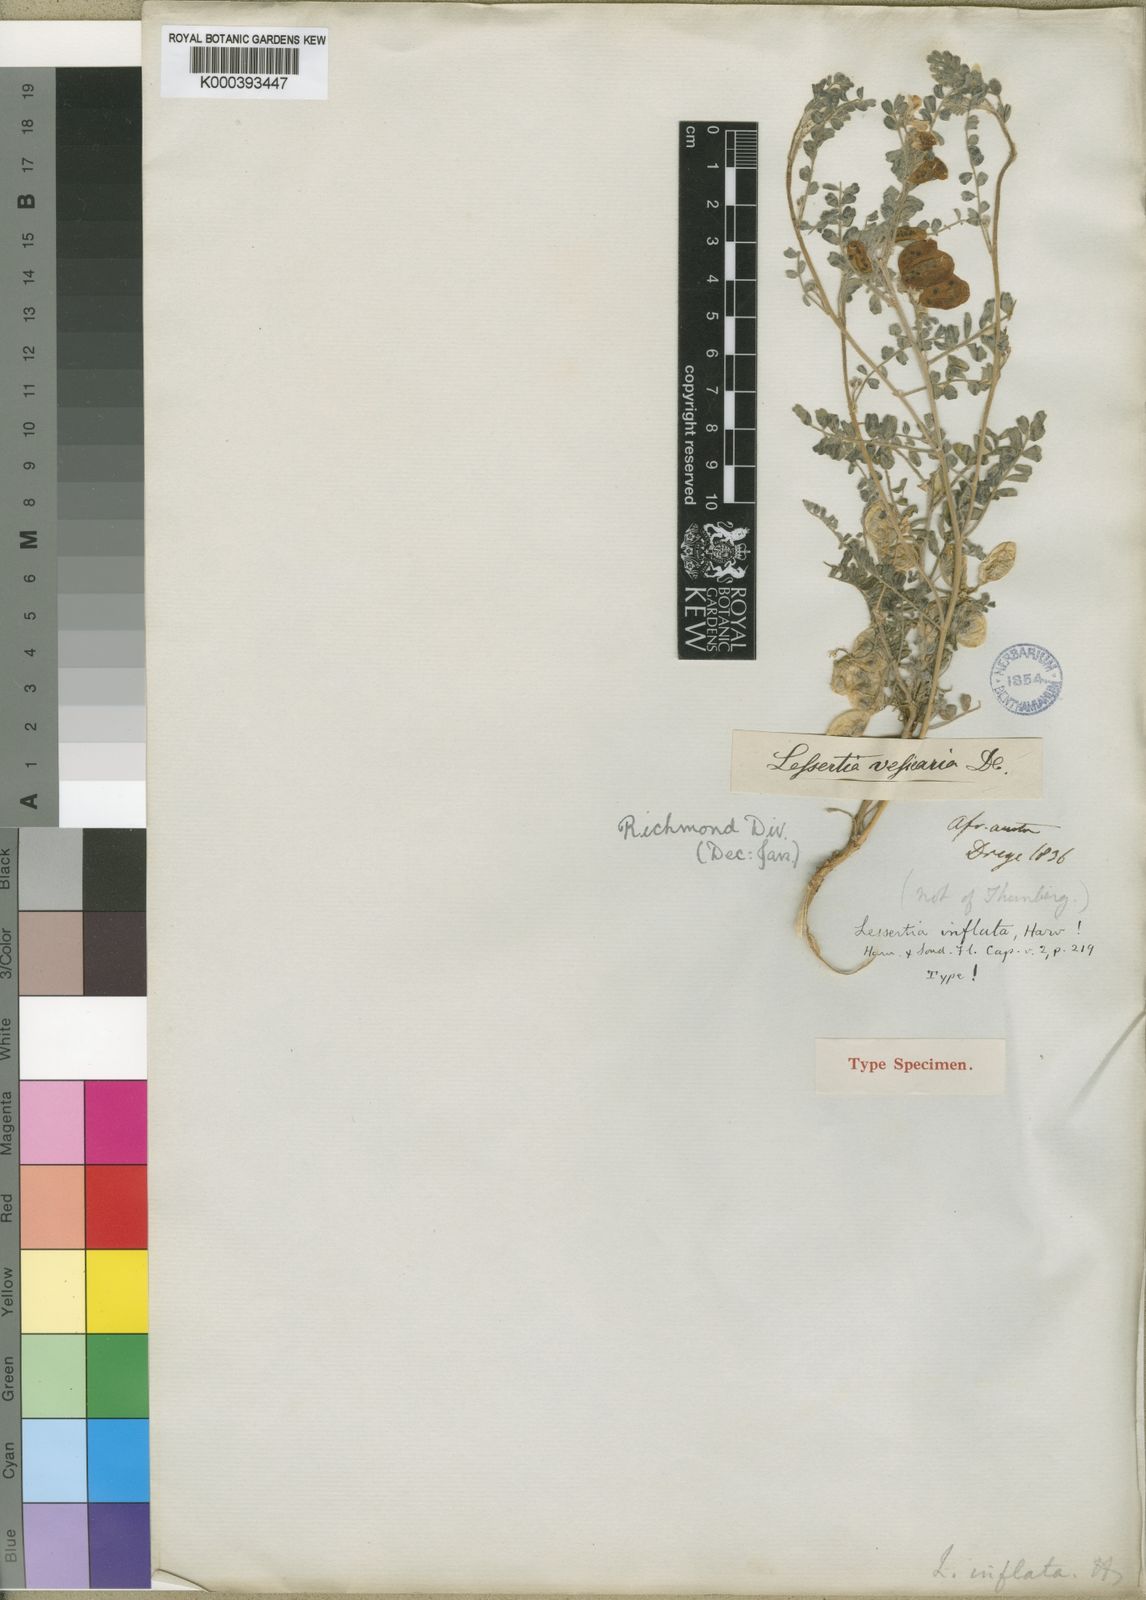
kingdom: Plantae
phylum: Tracheophyta
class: Magnoliopsida
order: Fabales
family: Fabaceae
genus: Lessertia
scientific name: Lessertia inflata
